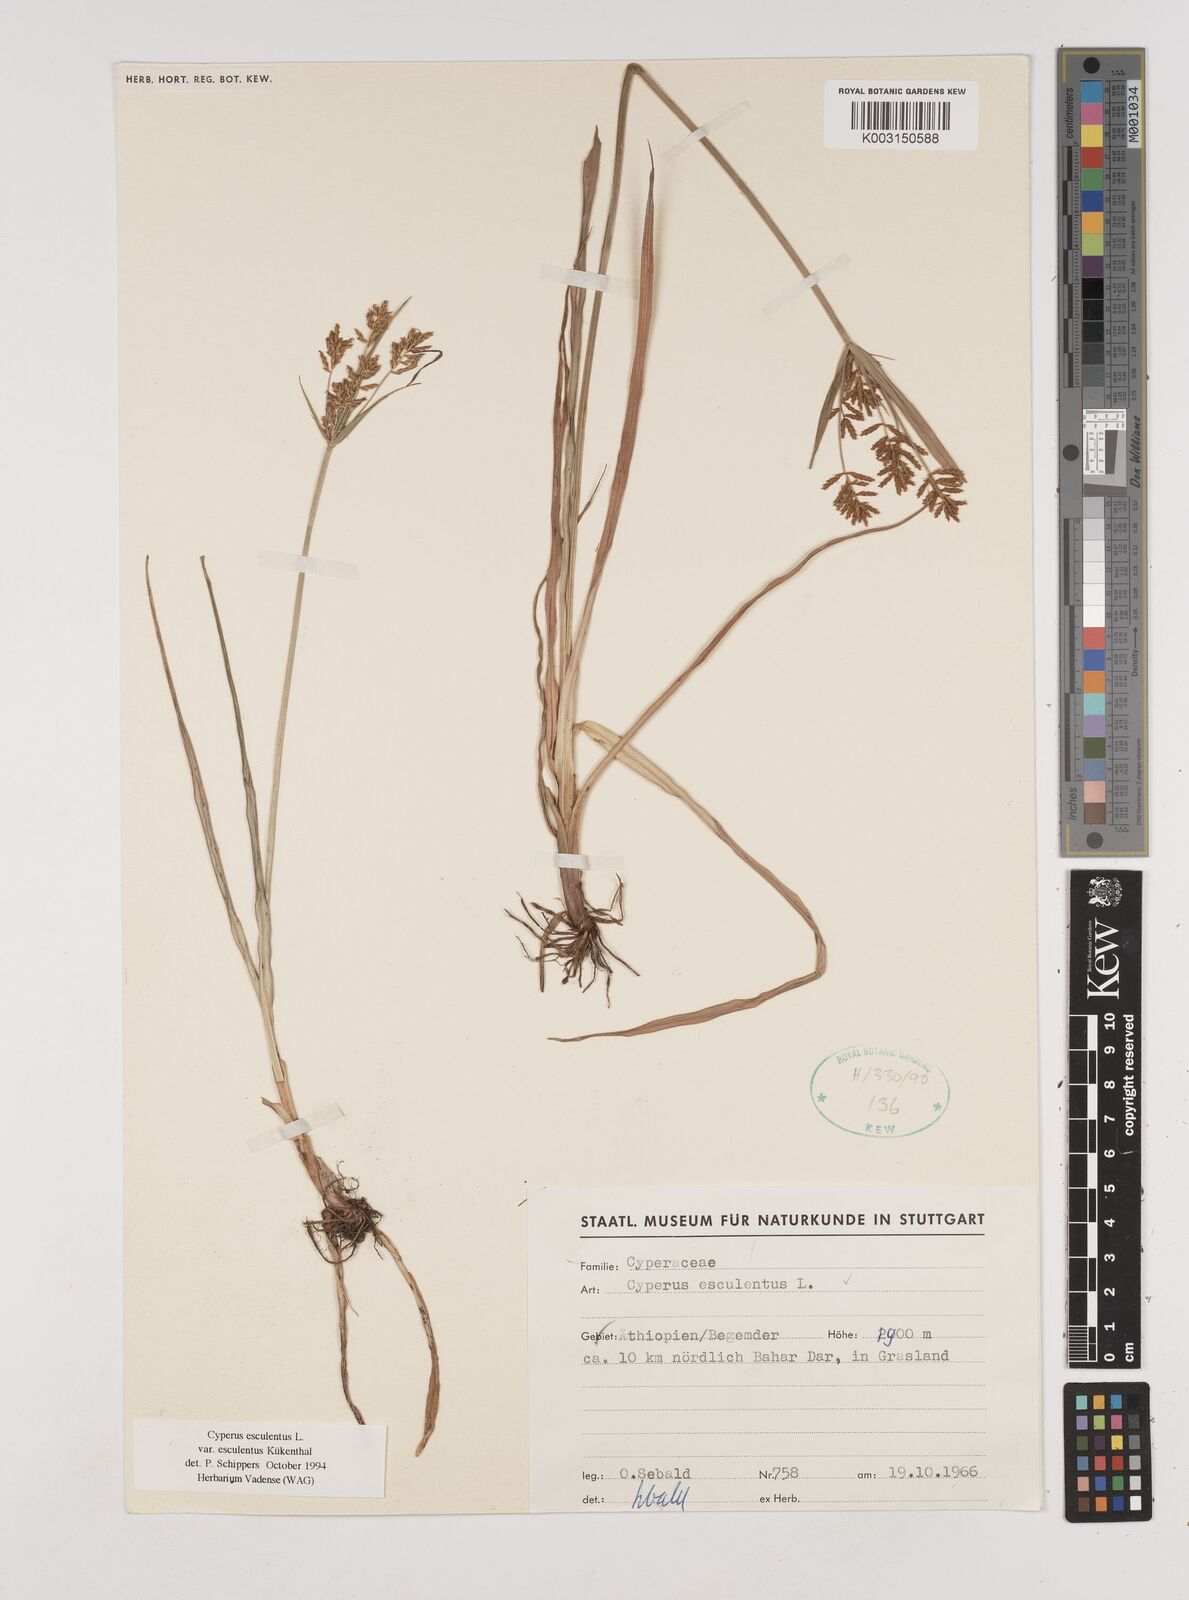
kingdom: Plantae
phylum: Tracheophyta
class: Liliopsida
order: Poales
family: Cyperaceae
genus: Cyperus
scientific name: Cyperus esculentus
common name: Yellow nutsedge
